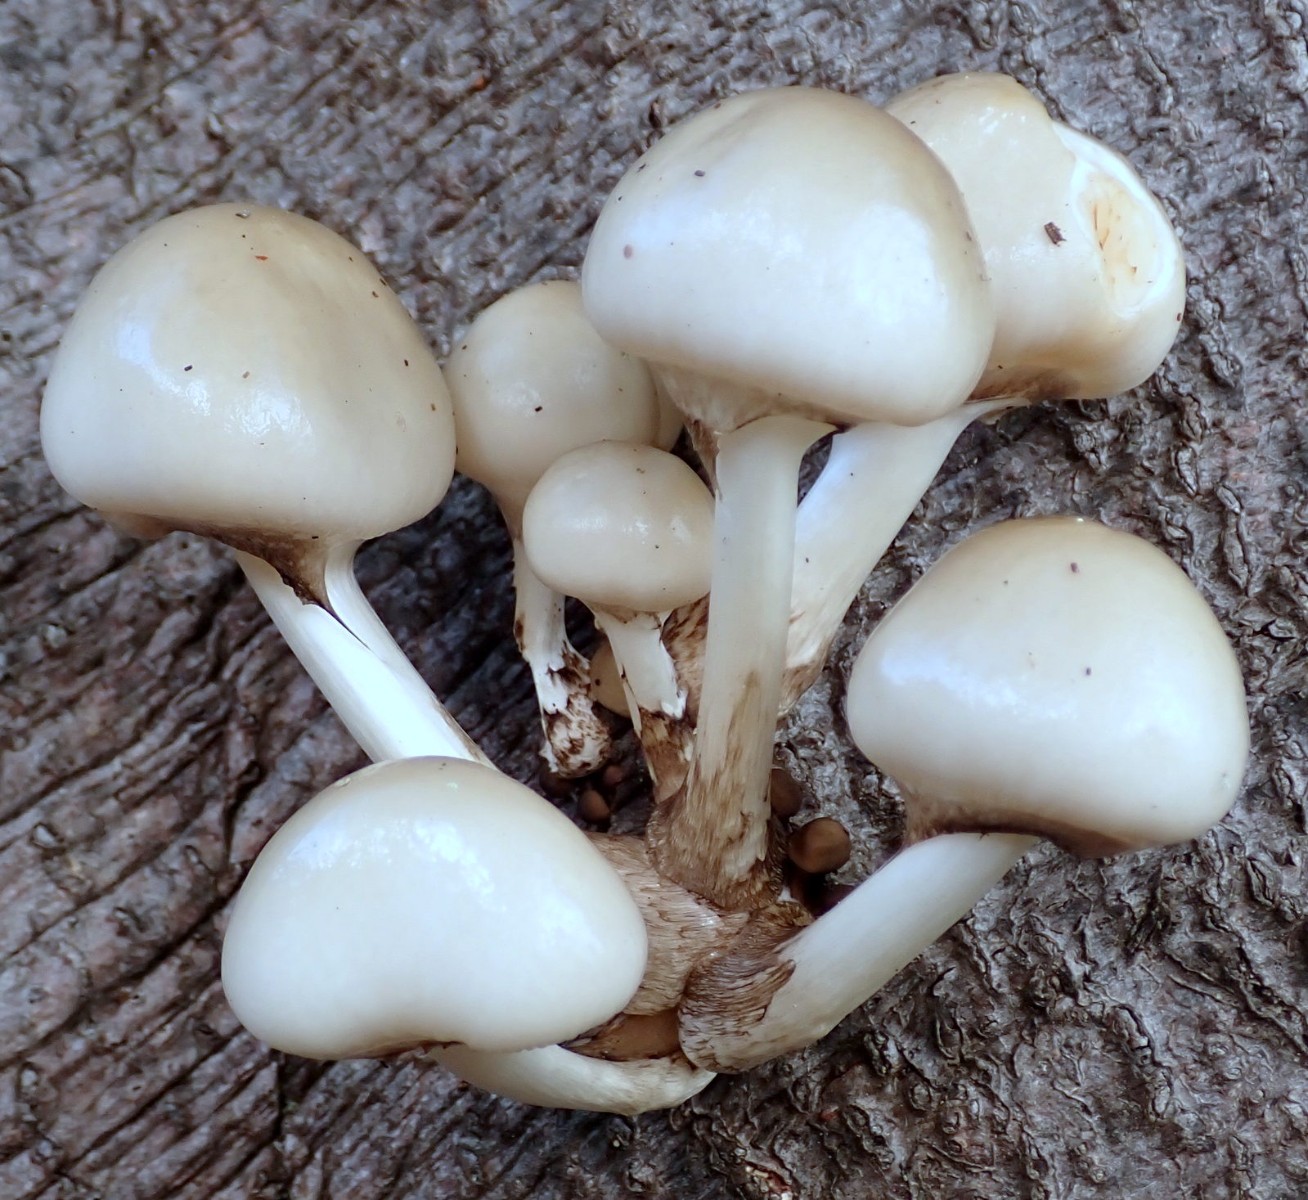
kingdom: Fungi
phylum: Basidiomycota
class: Agaricomycetes
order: Agaricales
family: Physalacriaceae
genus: Mucidula
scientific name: Mucidula mucida
